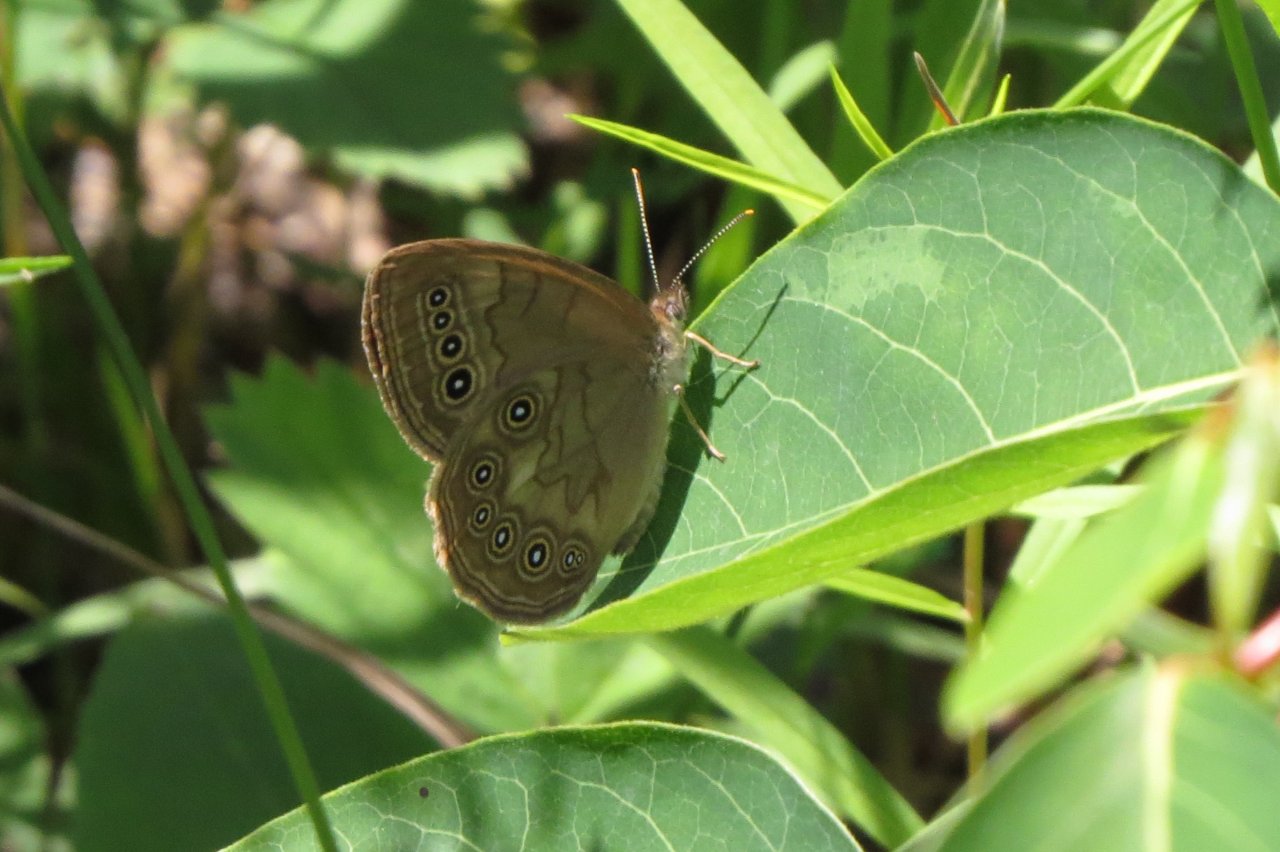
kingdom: Animalia
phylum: Arthropoda
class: Insecta
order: Lepidoptera
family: Nymphalidae
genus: Lethe
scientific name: Lethe eurydice
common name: Eyed Brown
